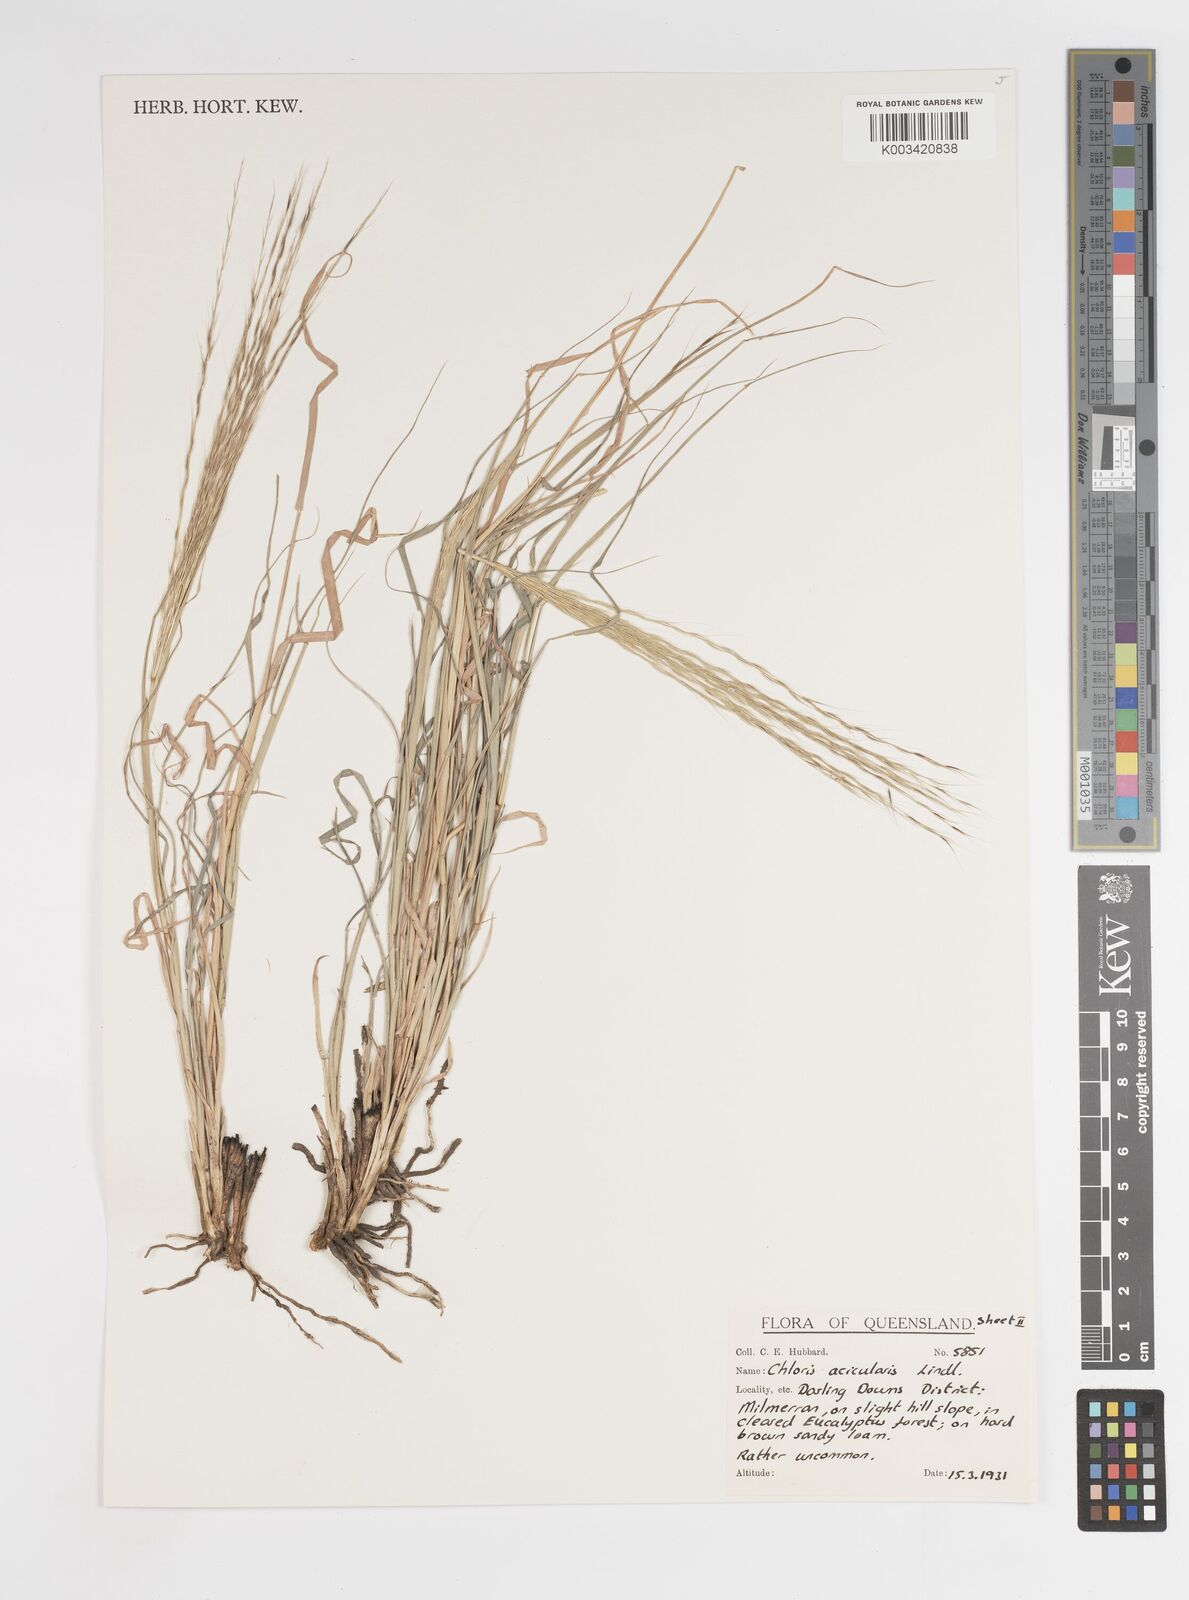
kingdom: Plantae
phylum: Tracheophyta
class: Liliopsida
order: Poales
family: Poaceae
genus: Enteropogon
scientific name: Enteropogon acicularis
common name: Curly windmill grass
